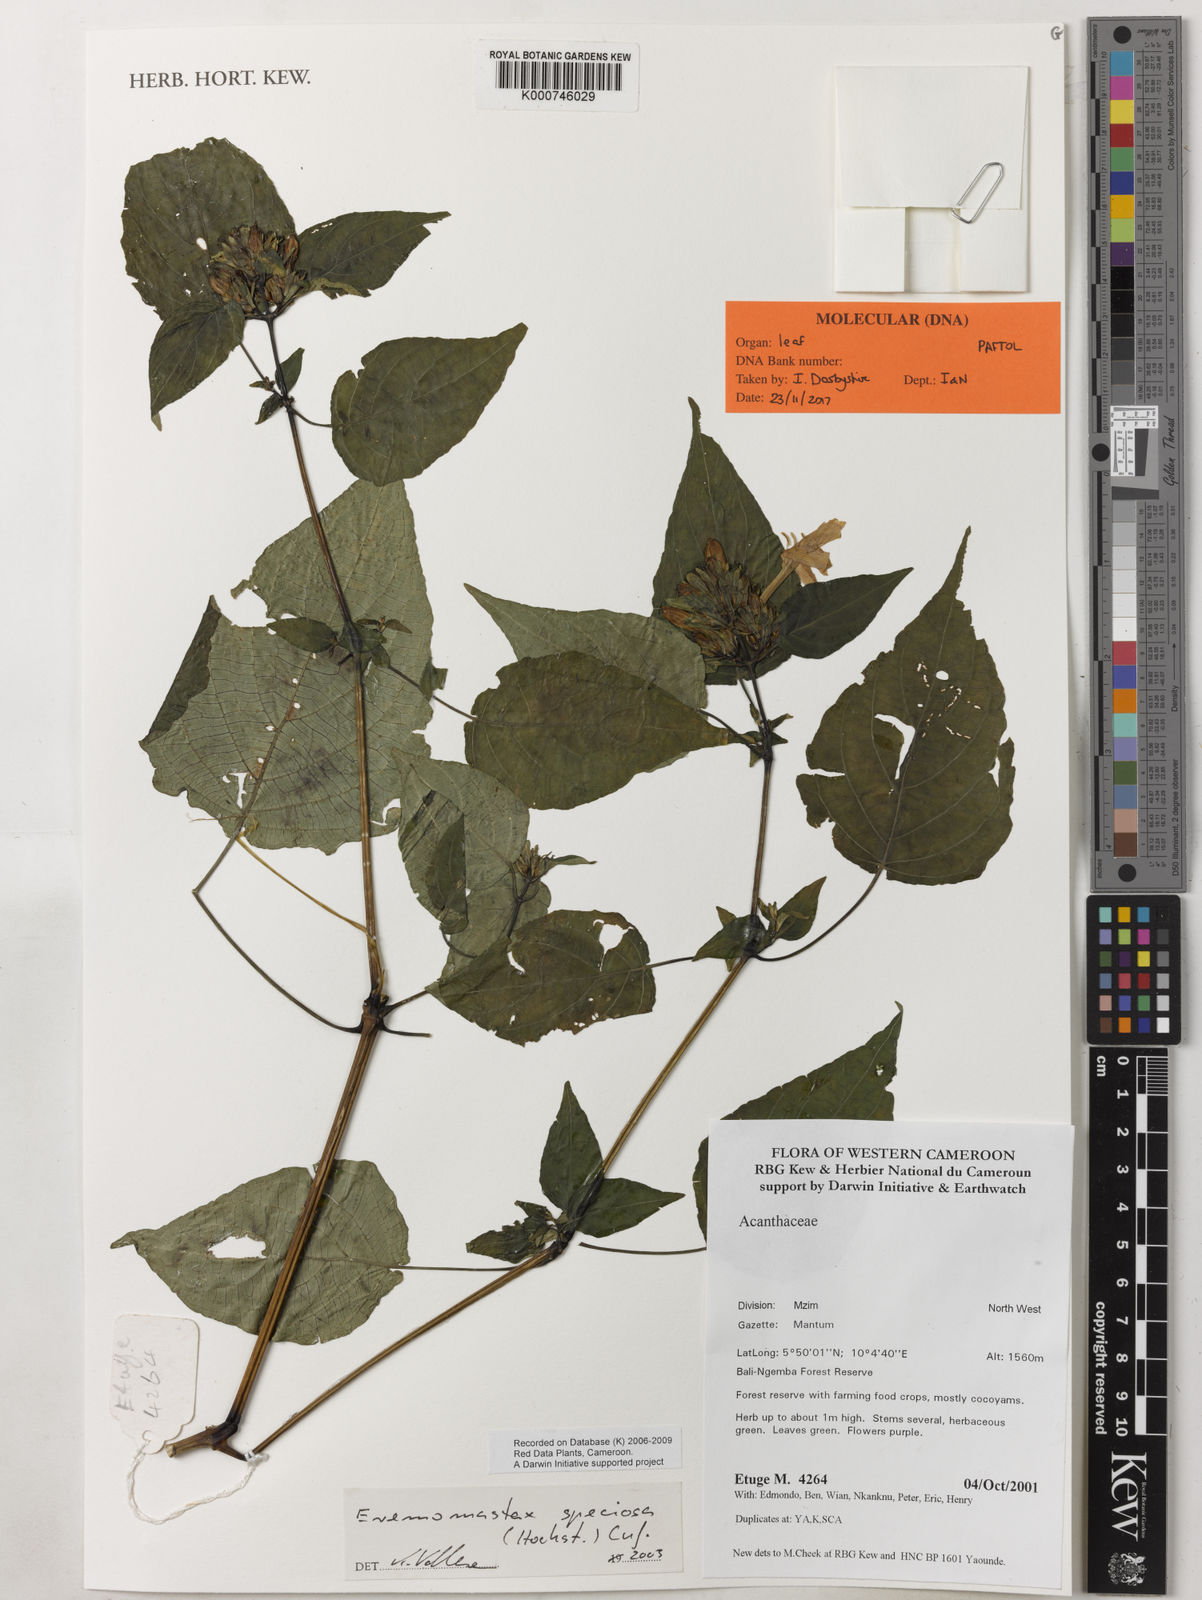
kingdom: Plantae
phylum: Tracheophyta
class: Magnoliopsida
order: Lamiales
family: Acanthaceae
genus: Eremomastax
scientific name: Eremomastax speciosa
